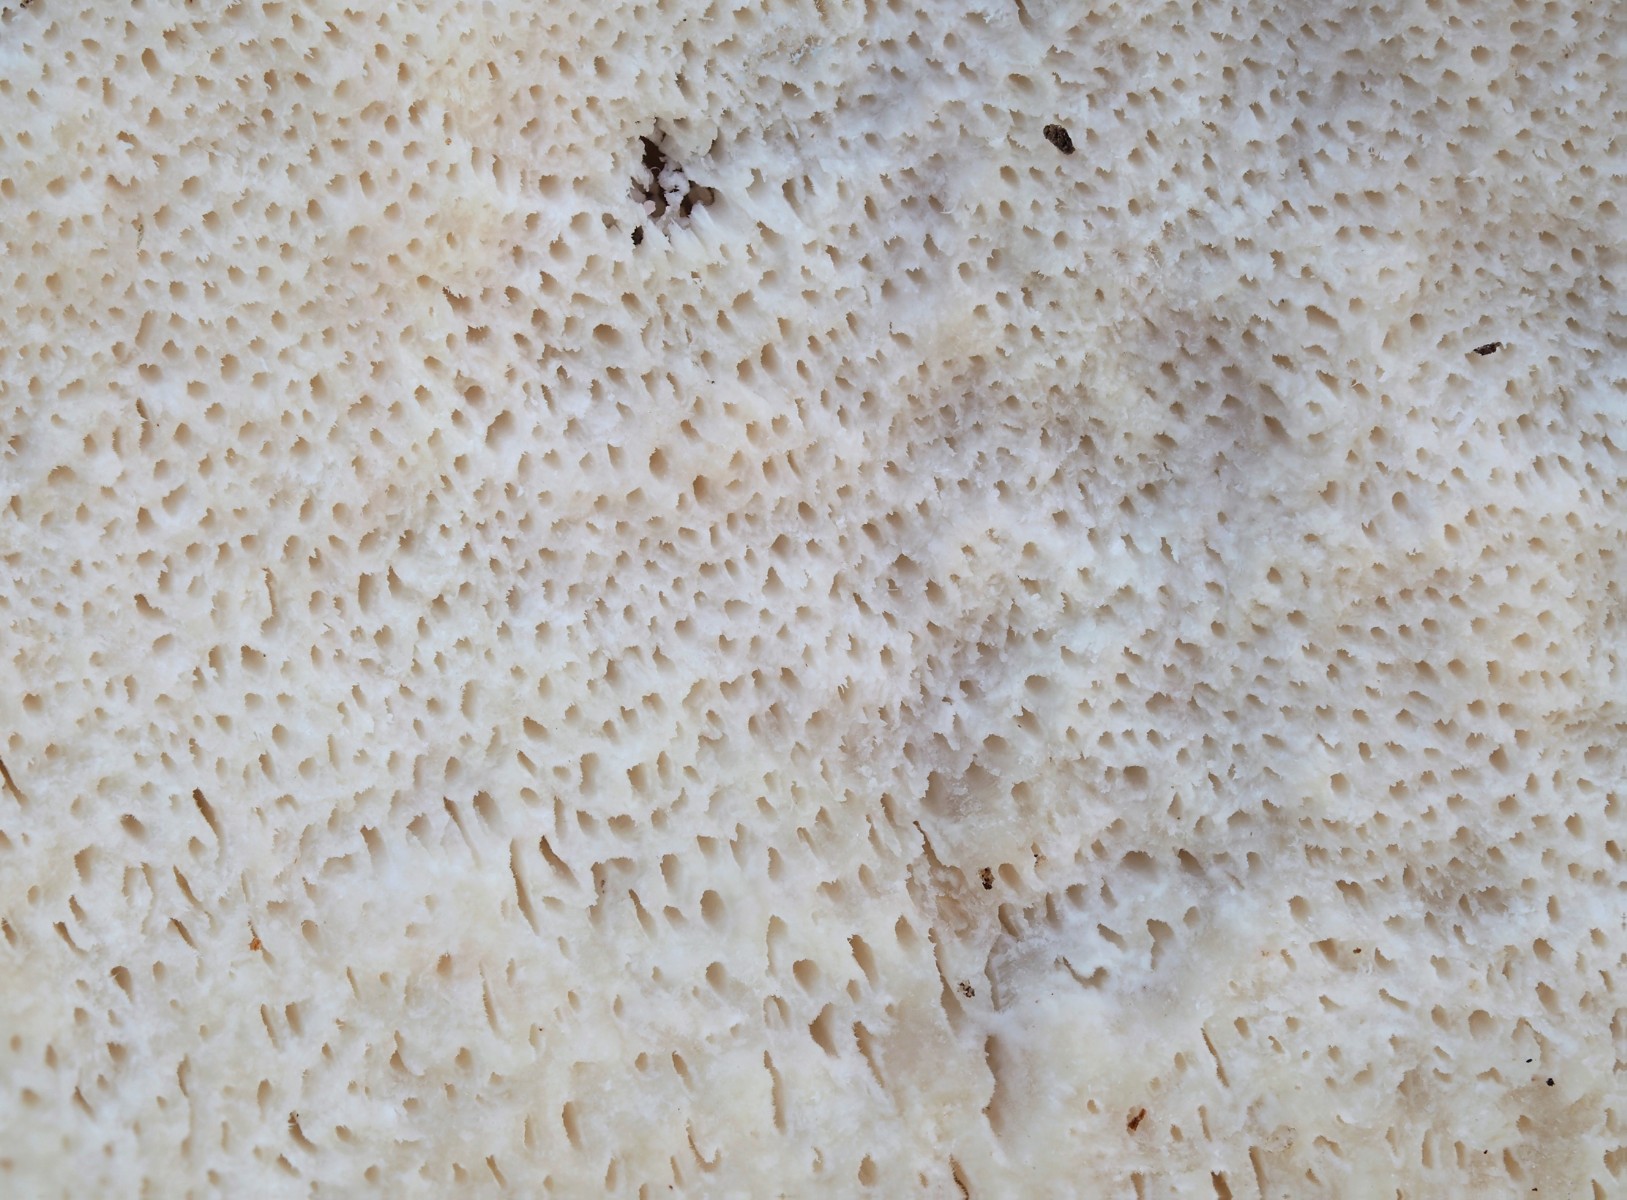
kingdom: Fungi
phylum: Basidiomycota
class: Agaricomycetes
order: Polyporales
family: Dacryobolaceae
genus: Postia
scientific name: Postia tephroleuca
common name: grålig kødporesvamp
